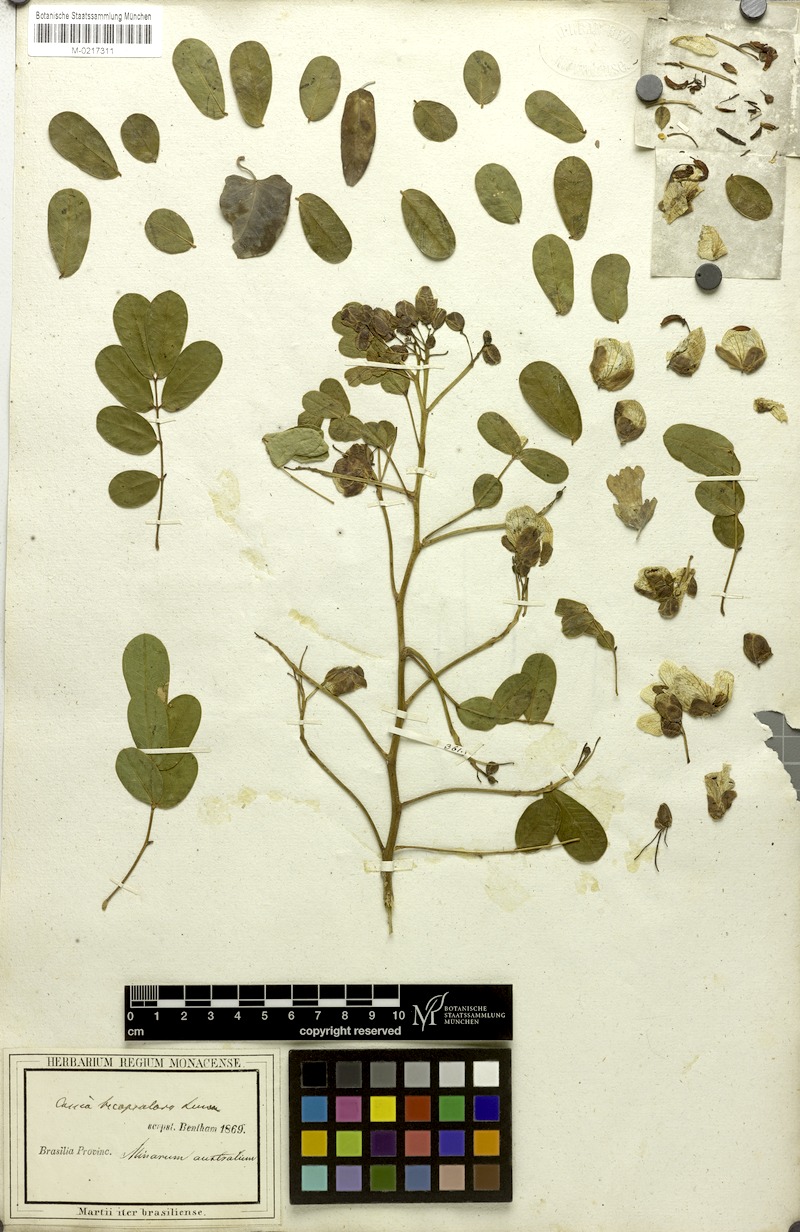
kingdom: Plantae
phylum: Tracheophyta
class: Magnoliopsida
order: Fabales
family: Fabaceae
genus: Senna
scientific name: Senna bicapsularis
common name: Christmasbush
